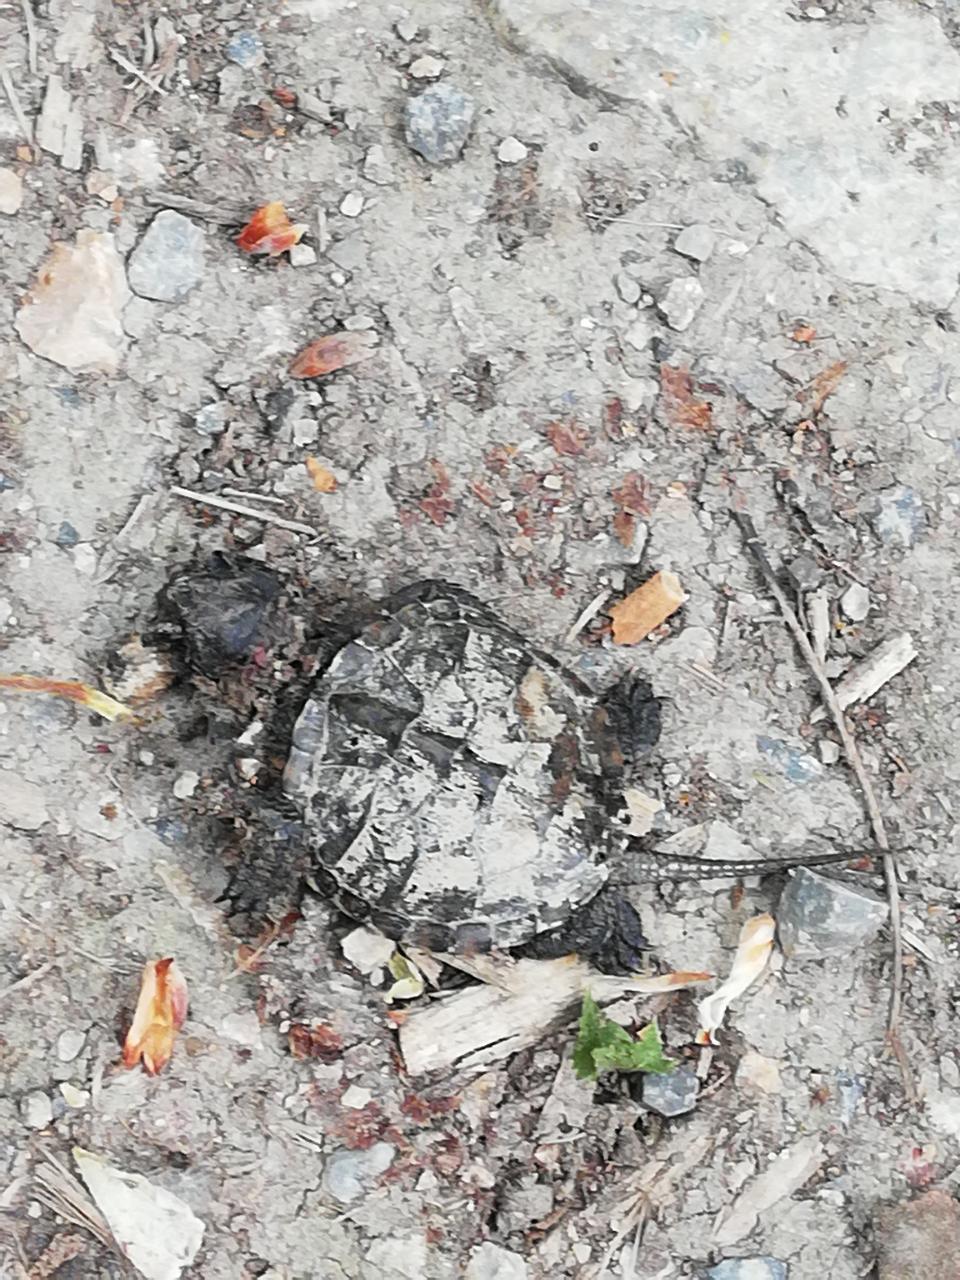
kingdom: Animalia
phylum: Chordata
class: Testudines
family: Testudinidae
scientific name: Testudinidae
